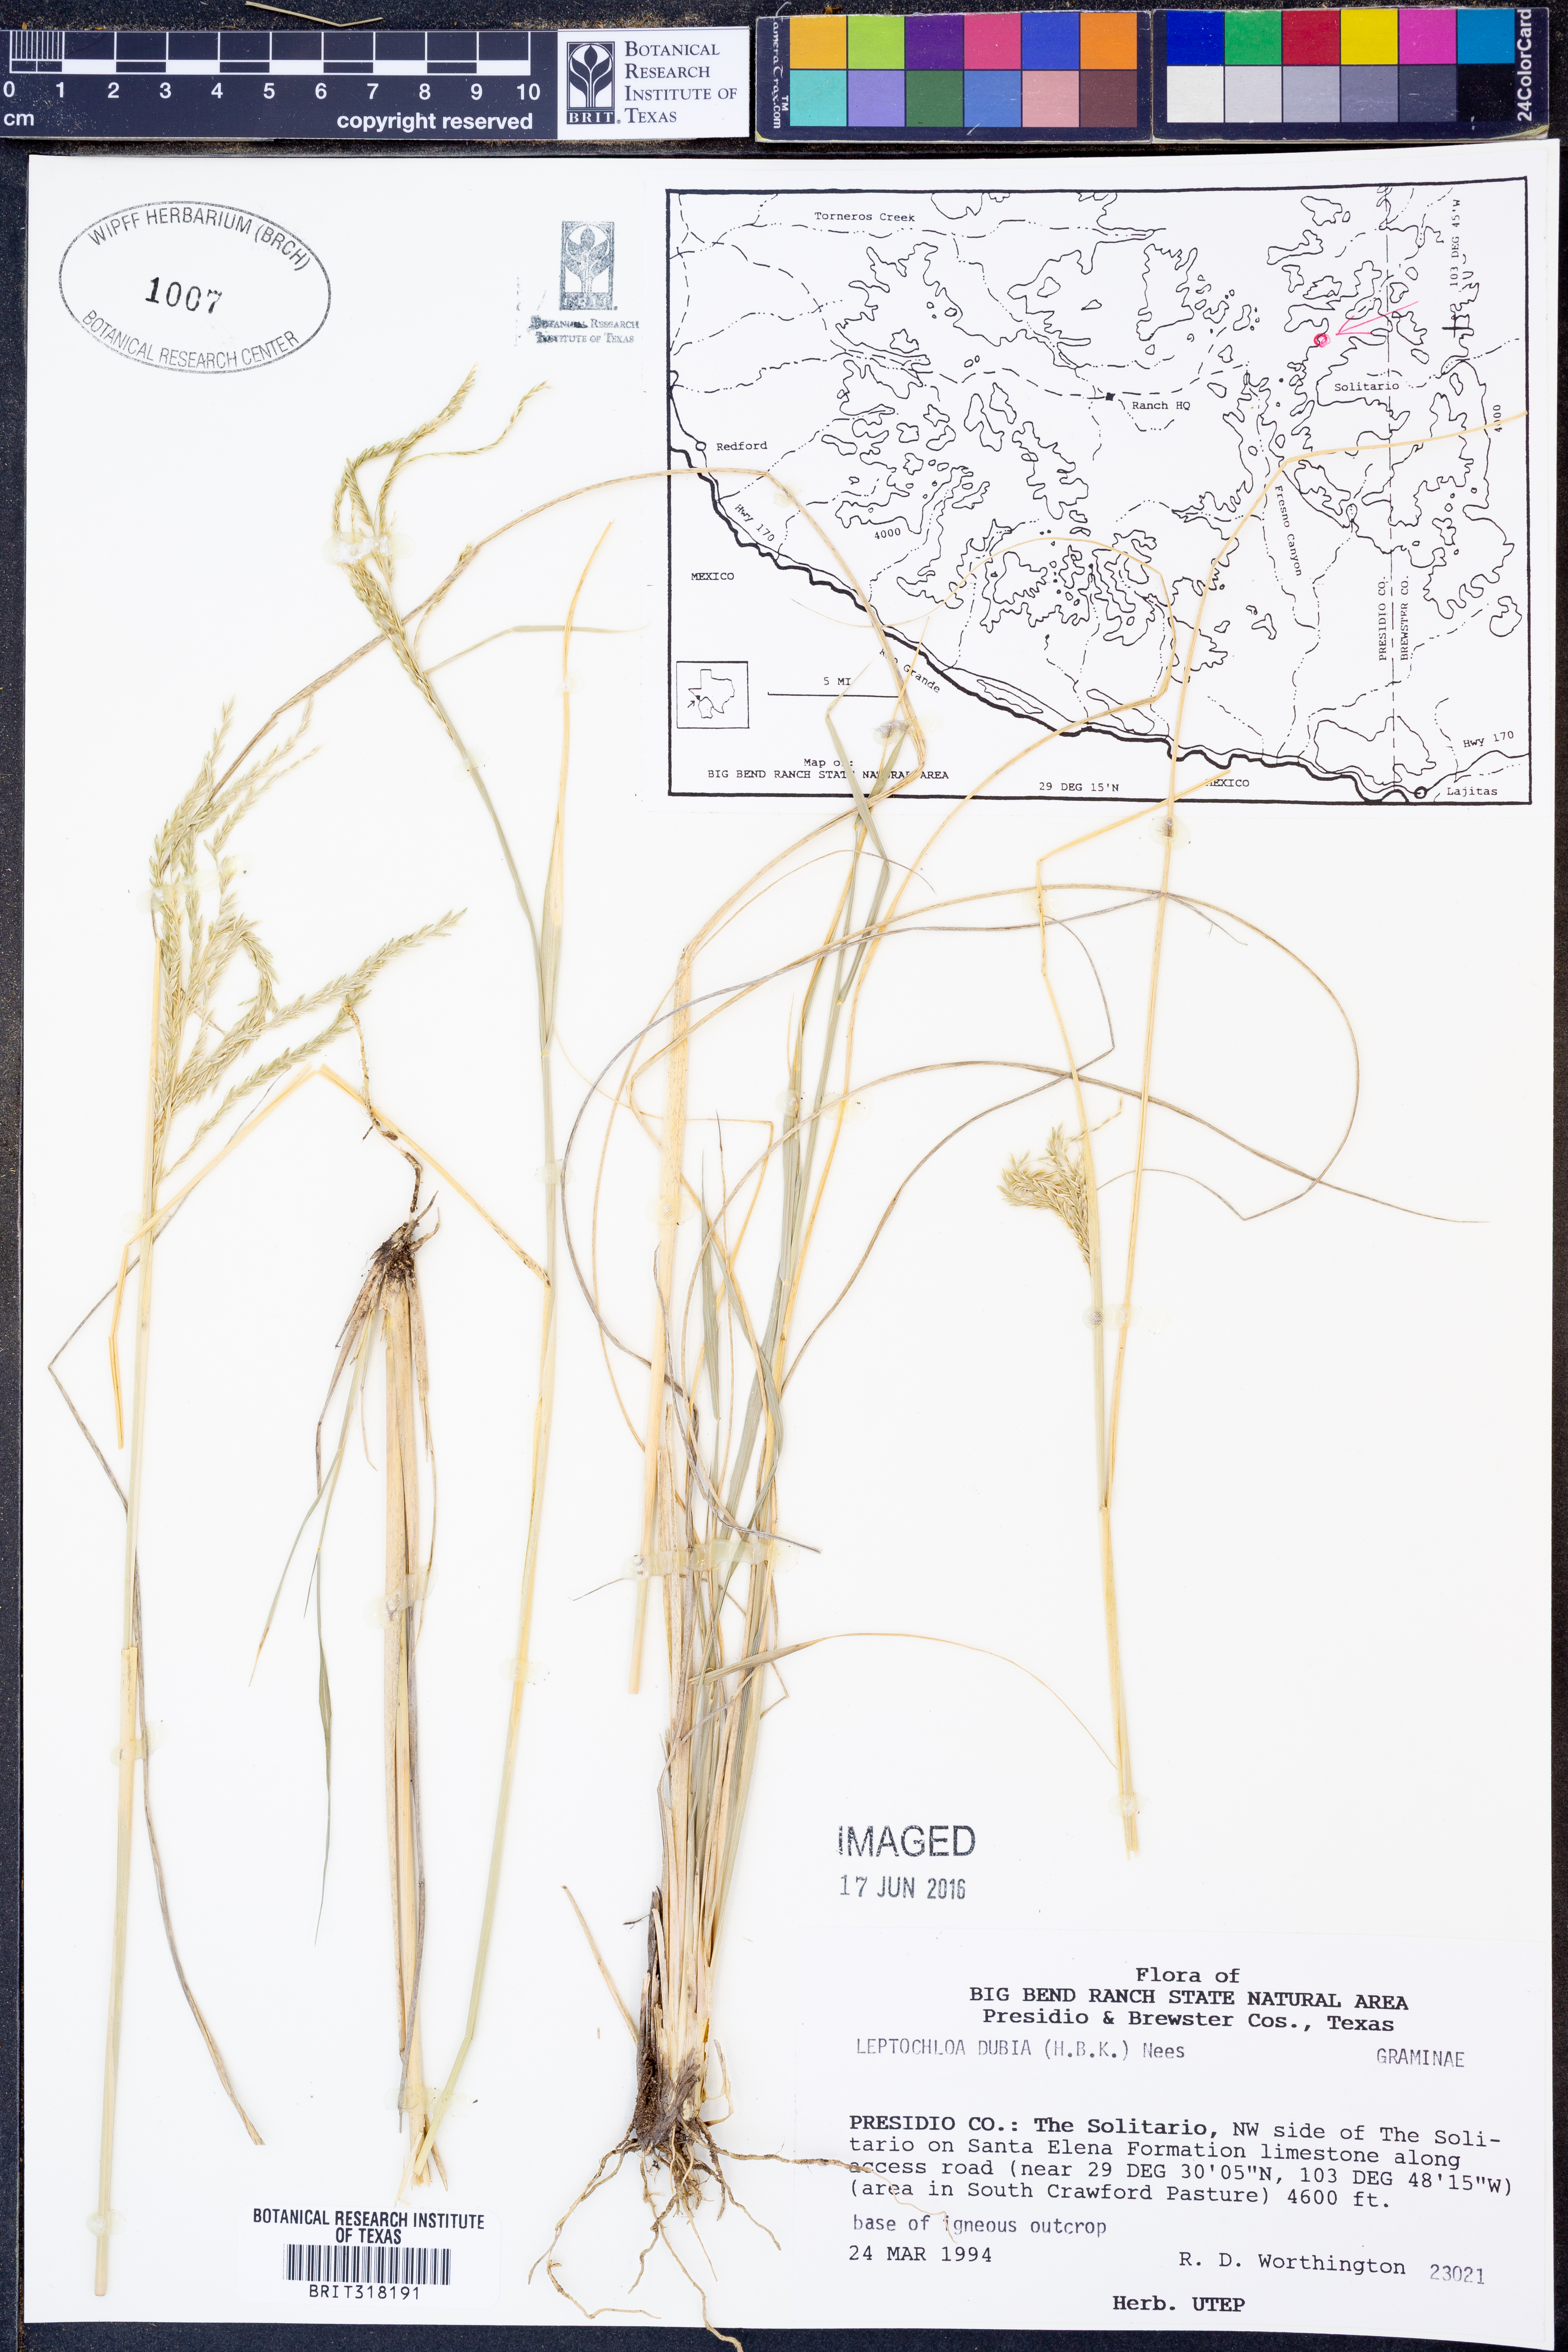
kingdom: Plantae
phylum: Tracheophyta
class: Liliopsida
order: Poales
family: Poaceae
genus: Disakisperma
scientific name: Disakisperma dubium
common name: Green sprangletop
